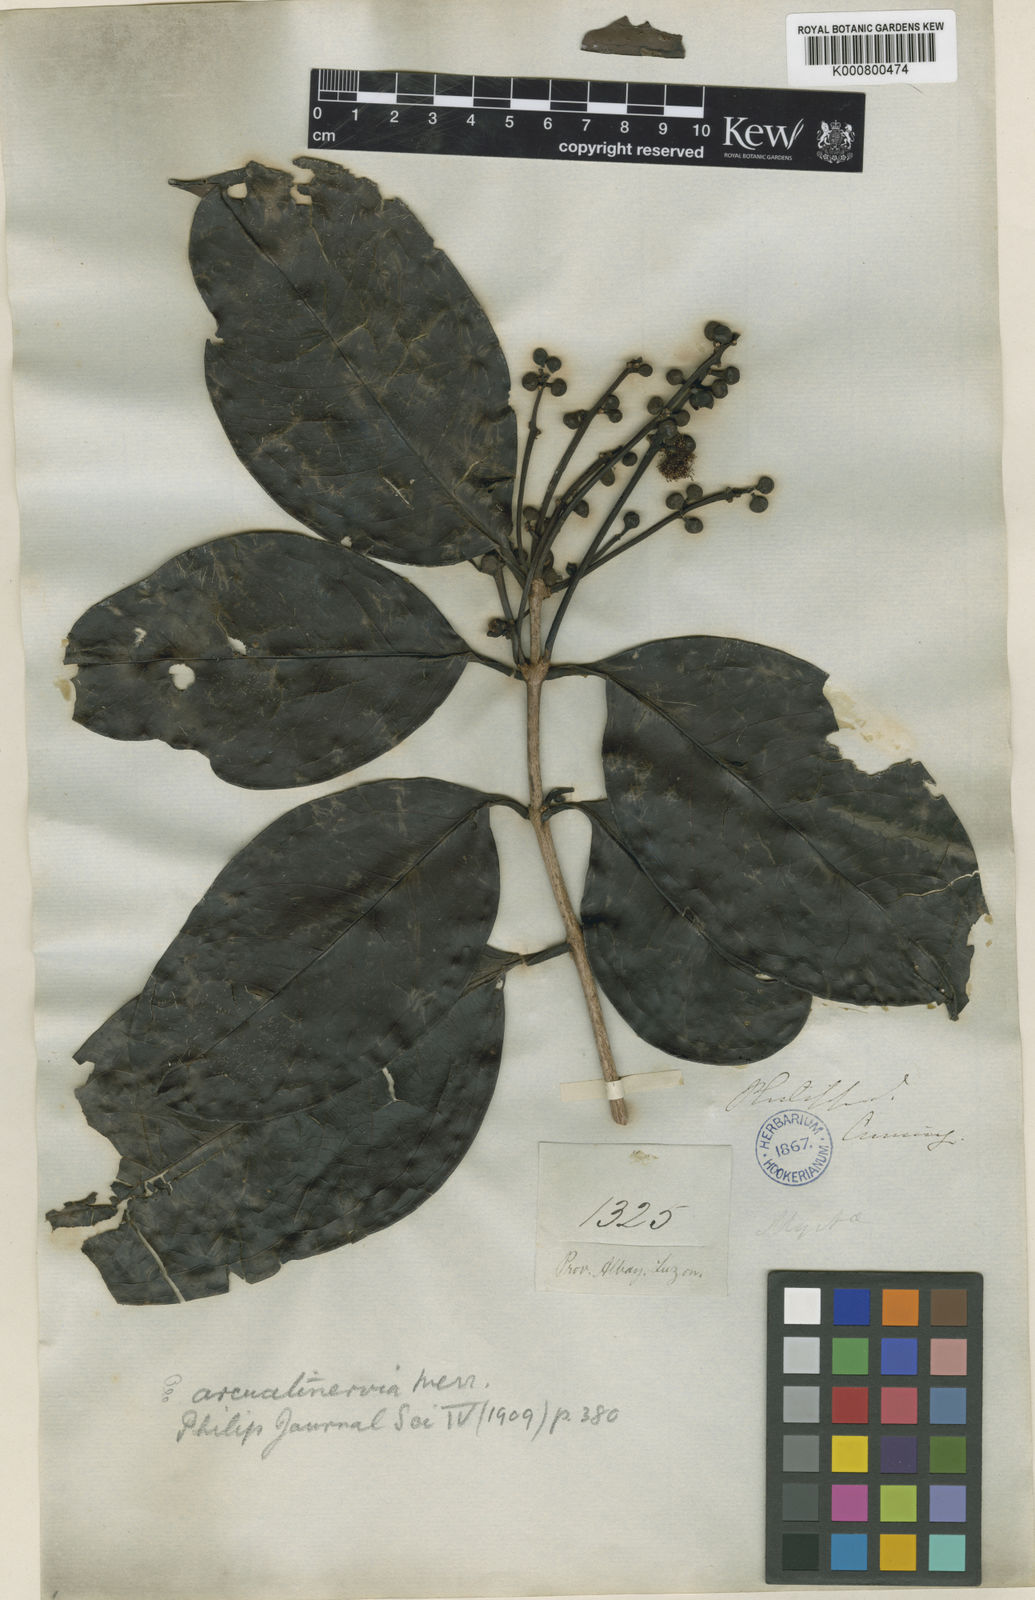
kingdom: Plantae
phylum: Tracheophyta
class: Magnoliopsida
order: Myrtales
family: Myrtaceae
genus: Syzygium
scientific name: Syzygium arcuatinervium
